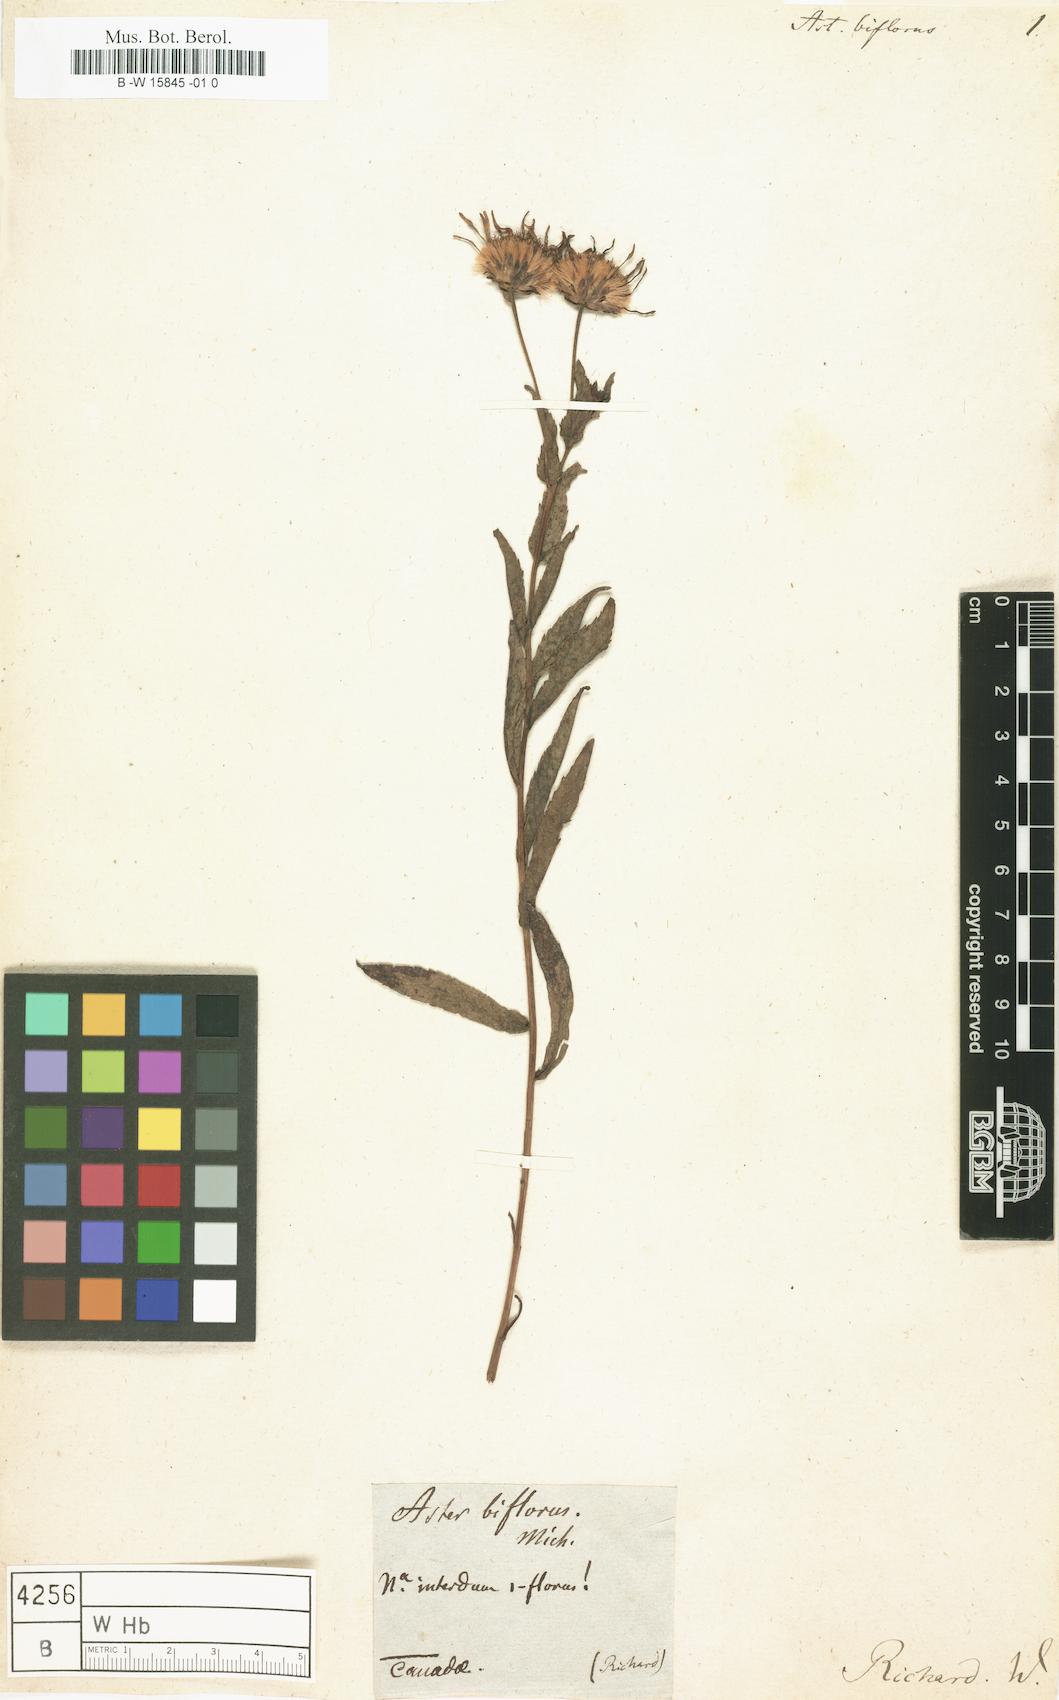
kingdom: Plantae
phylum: Tracheophyta
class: Magnoliopsida
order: Asterales
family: Asteraceae
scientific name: Asteraceae
